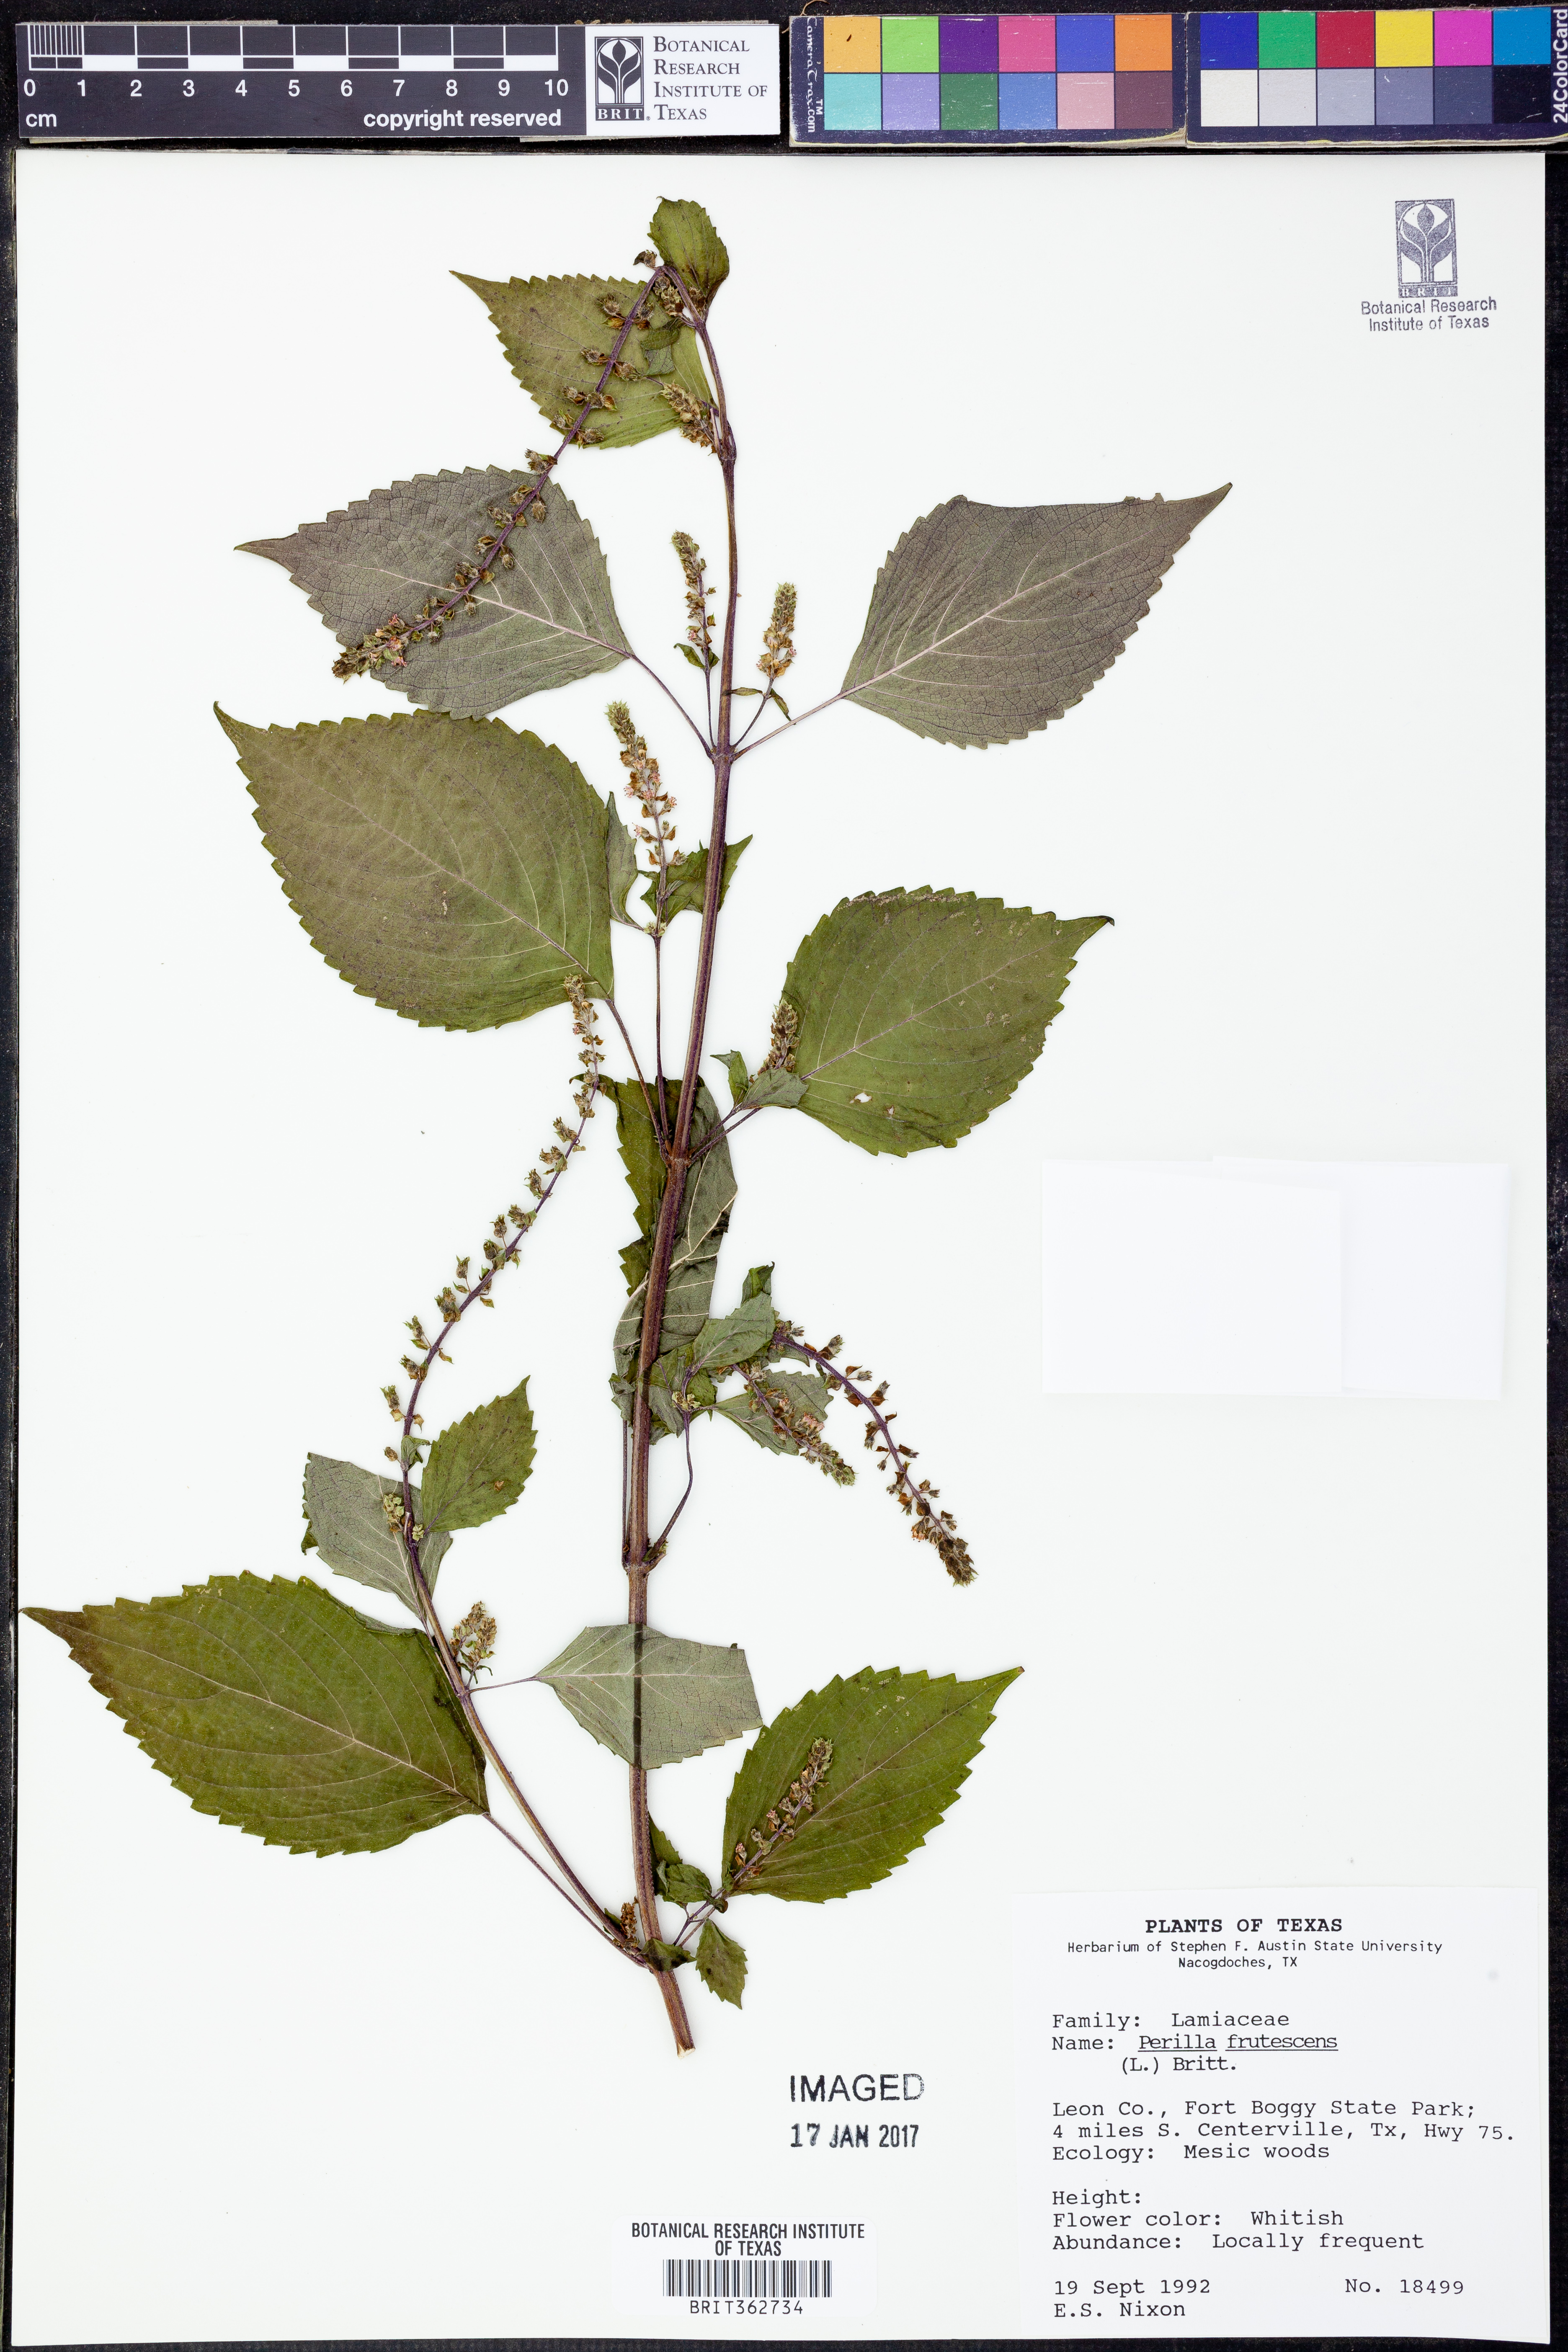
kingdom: Plantae
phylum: Tracheophyta
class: Magnoliopsida
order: Lamiales
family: Lamiaceae
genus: Perilla
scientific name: Perilla frutescens
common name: Perilla
